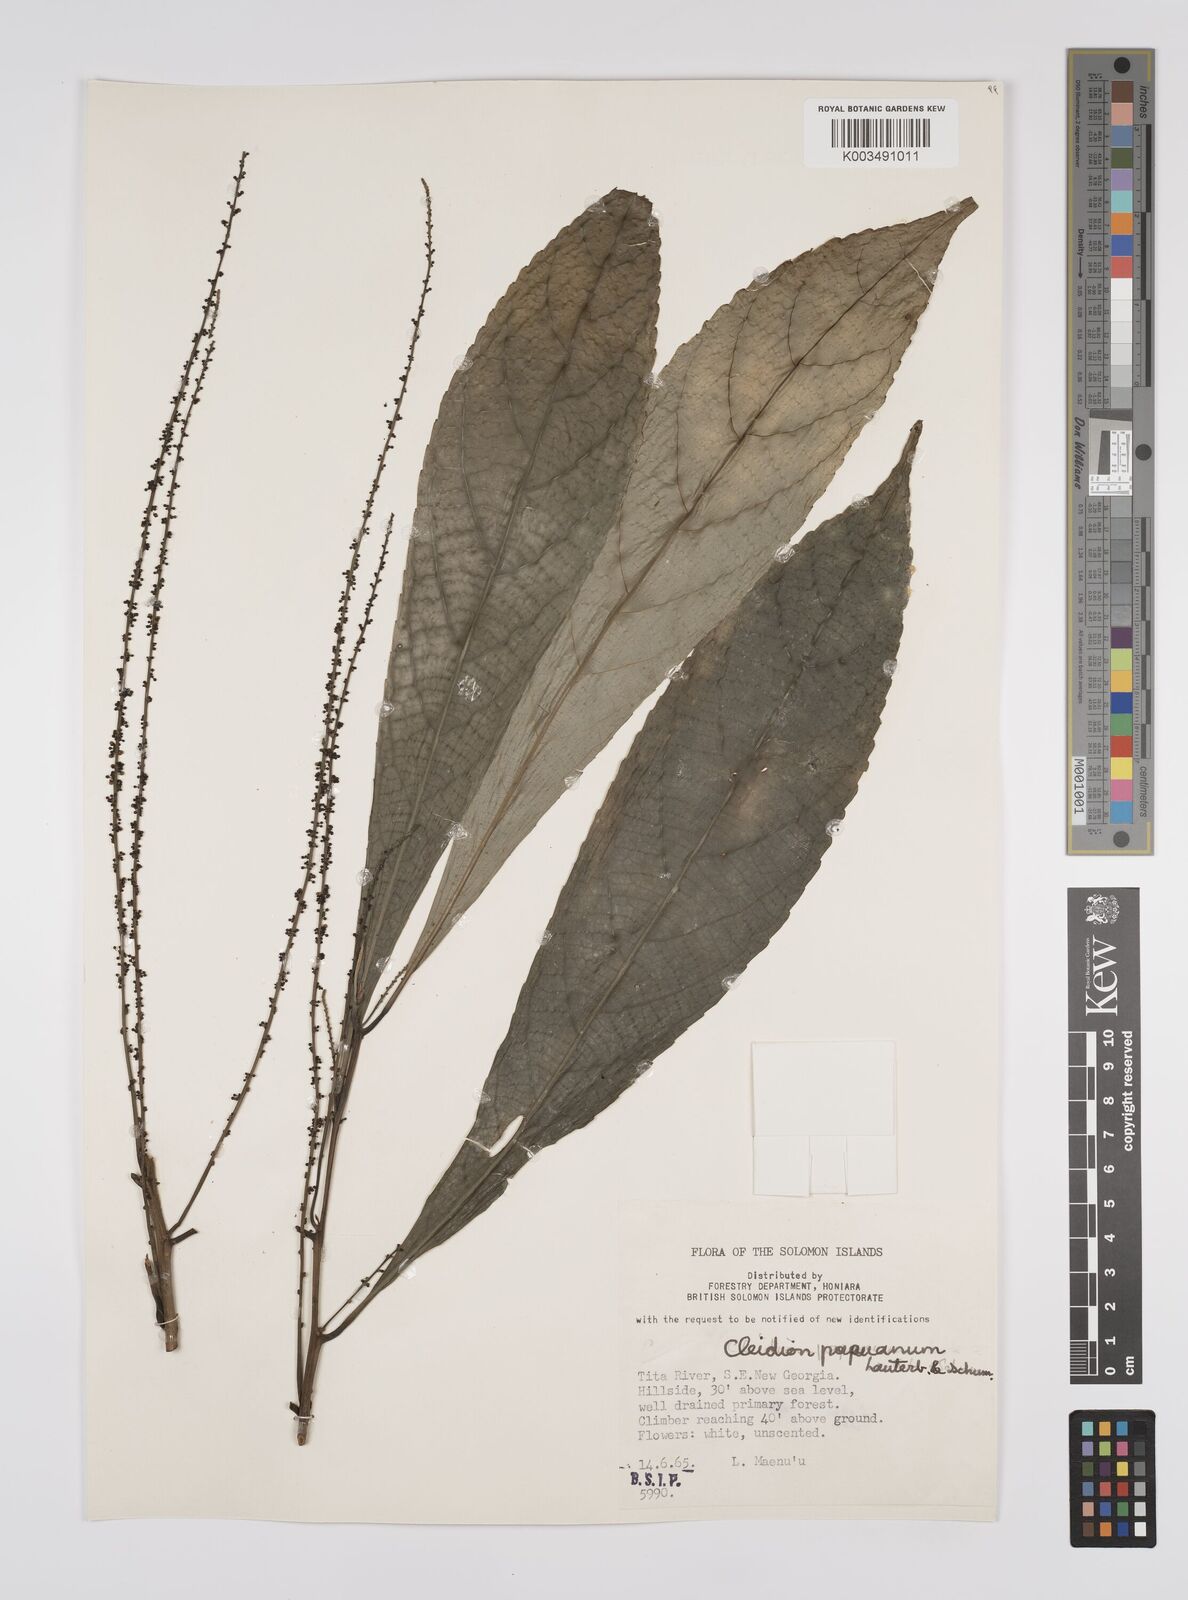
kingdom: Plantae
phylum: Tracheophyta
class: Magnoliopsida
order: Malpighiales
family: Euphorbiaceae
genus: Cleidion
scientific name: Cleidion papuanum
